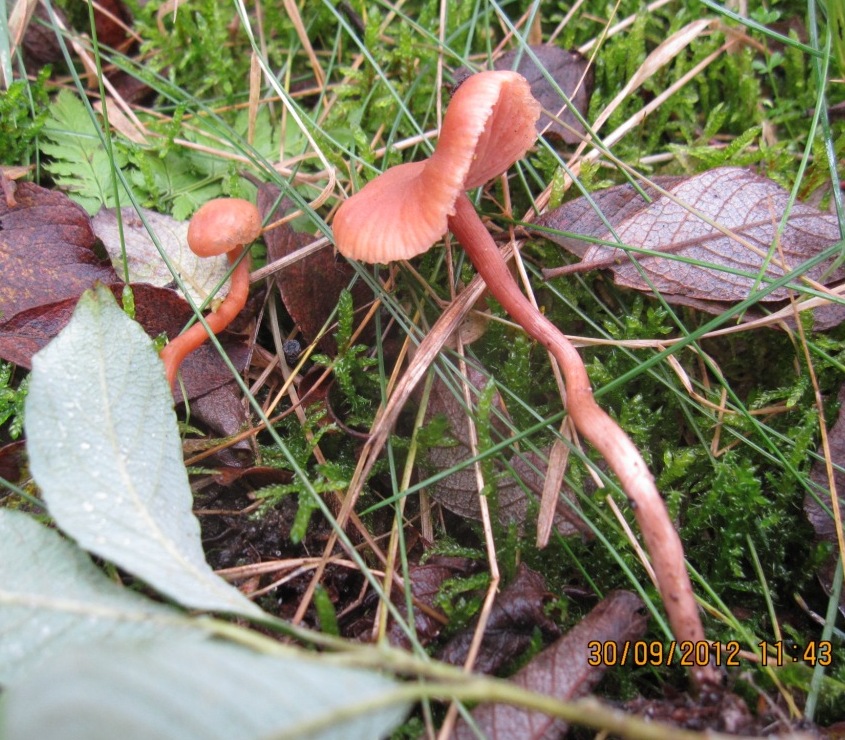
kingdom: Fungi
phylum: Basidiomycota
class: Agaricomycetes
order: Agaricales
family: Hydnangiaceae
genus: Laccaria
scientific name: Laccaria laccata
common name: rød ametysthat
